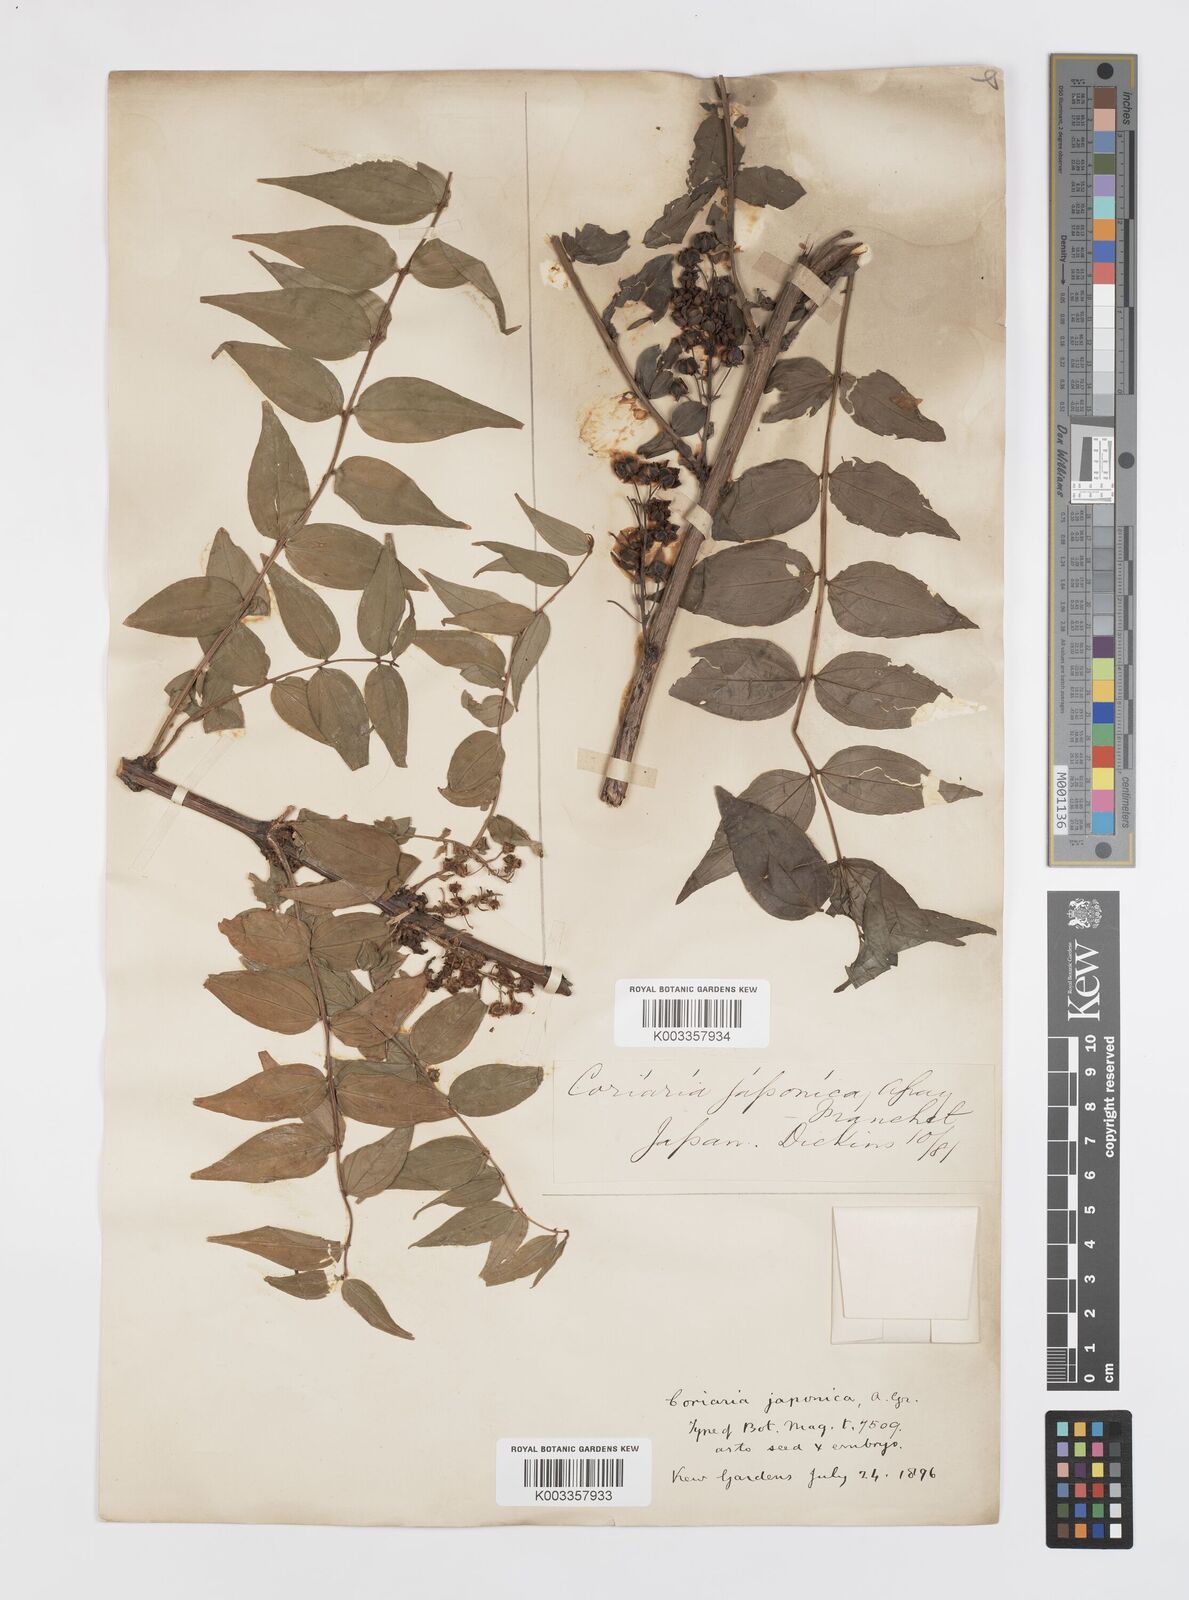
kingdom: Plantae
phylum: Tracheophyta
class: Magnoliopsida
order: Cucurbitales
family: Coriariaceae
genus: Coriaria
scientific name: Coriaria japonica
